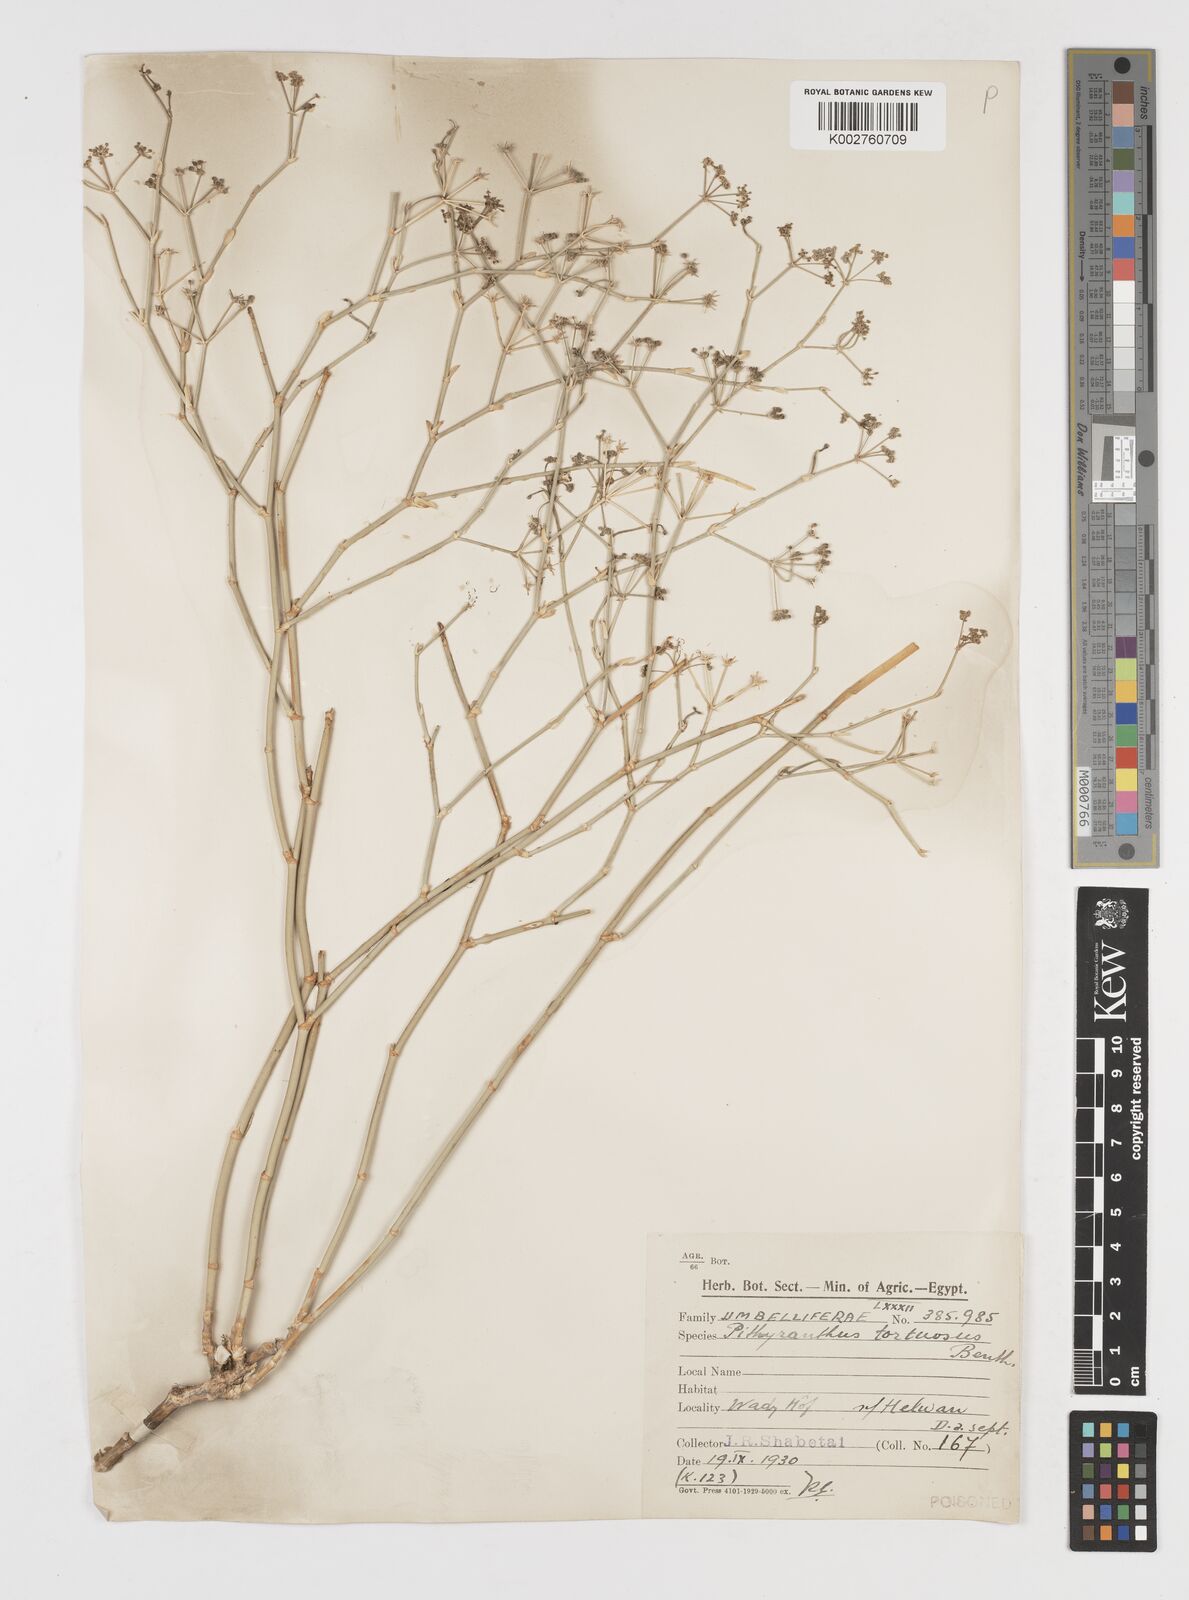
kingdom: Plantae
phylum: Tracheophyta
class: Magnoliopsida
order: Apiales
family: Apiaceae
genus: Deverra
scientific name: Deverra denudata
